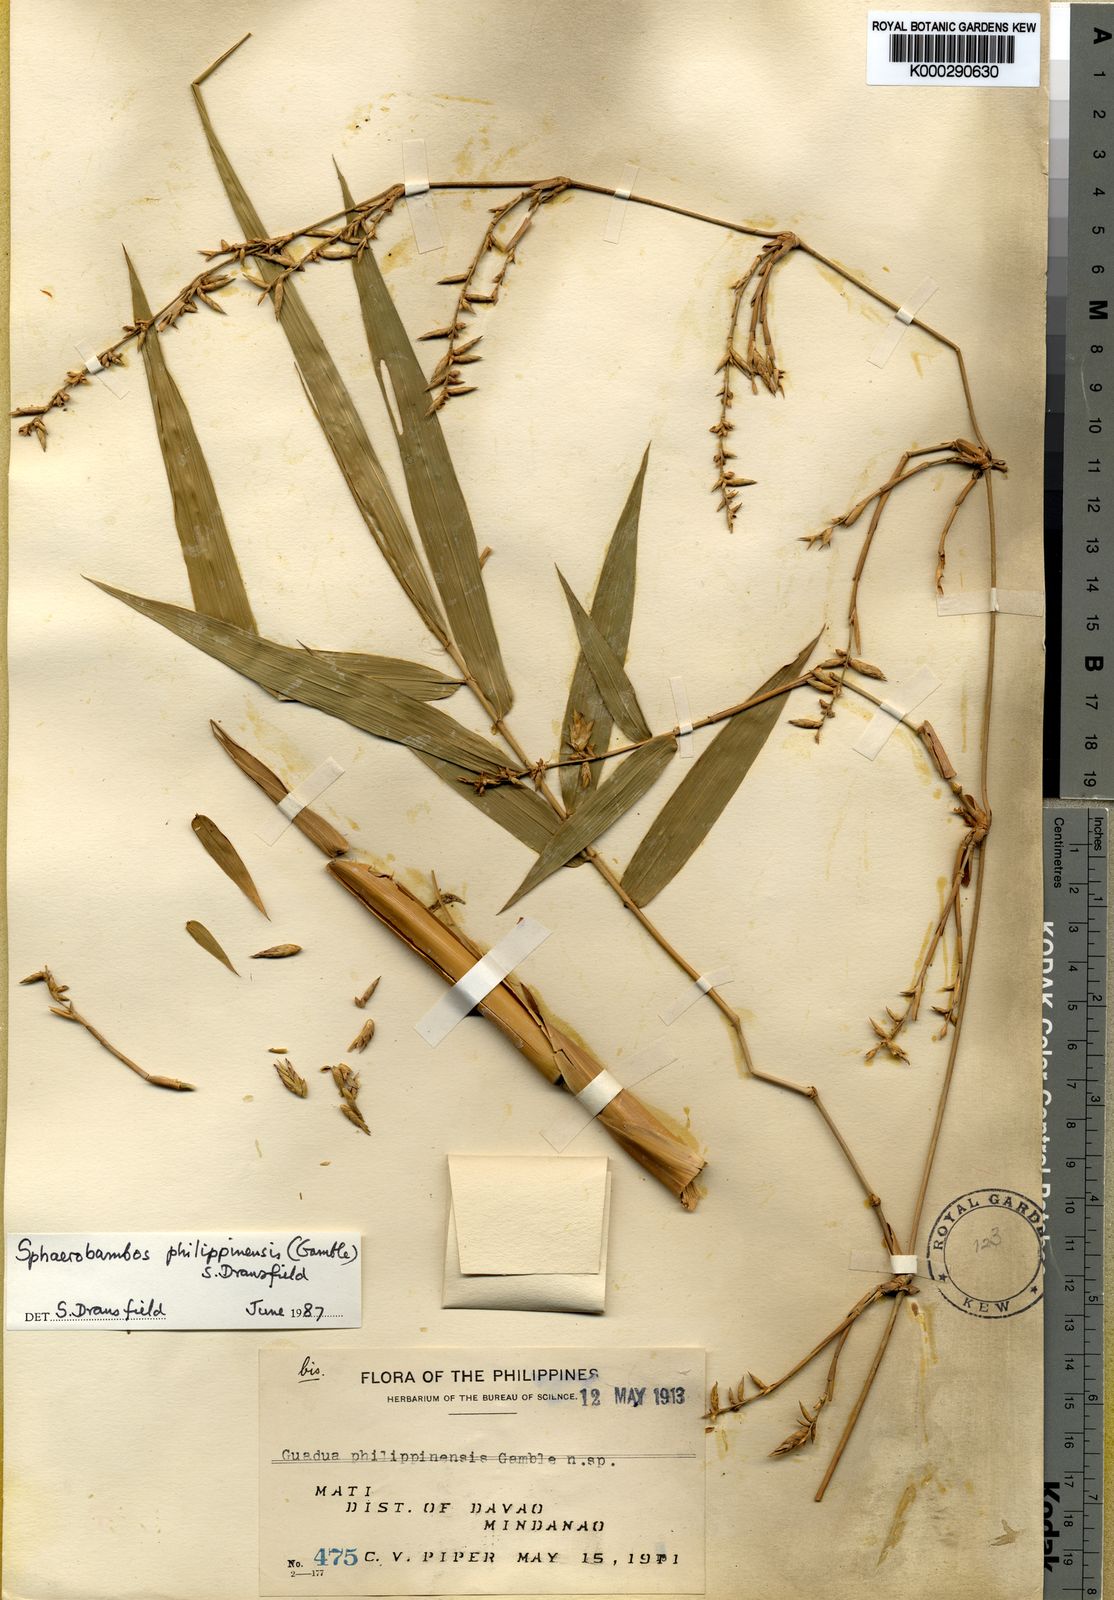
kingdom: Plantae
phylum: Tracheophyta
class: Liliopsida
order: Poales
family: Poaceae
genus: Sphaerobambos
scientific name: Sphaerobambos philippinensis
